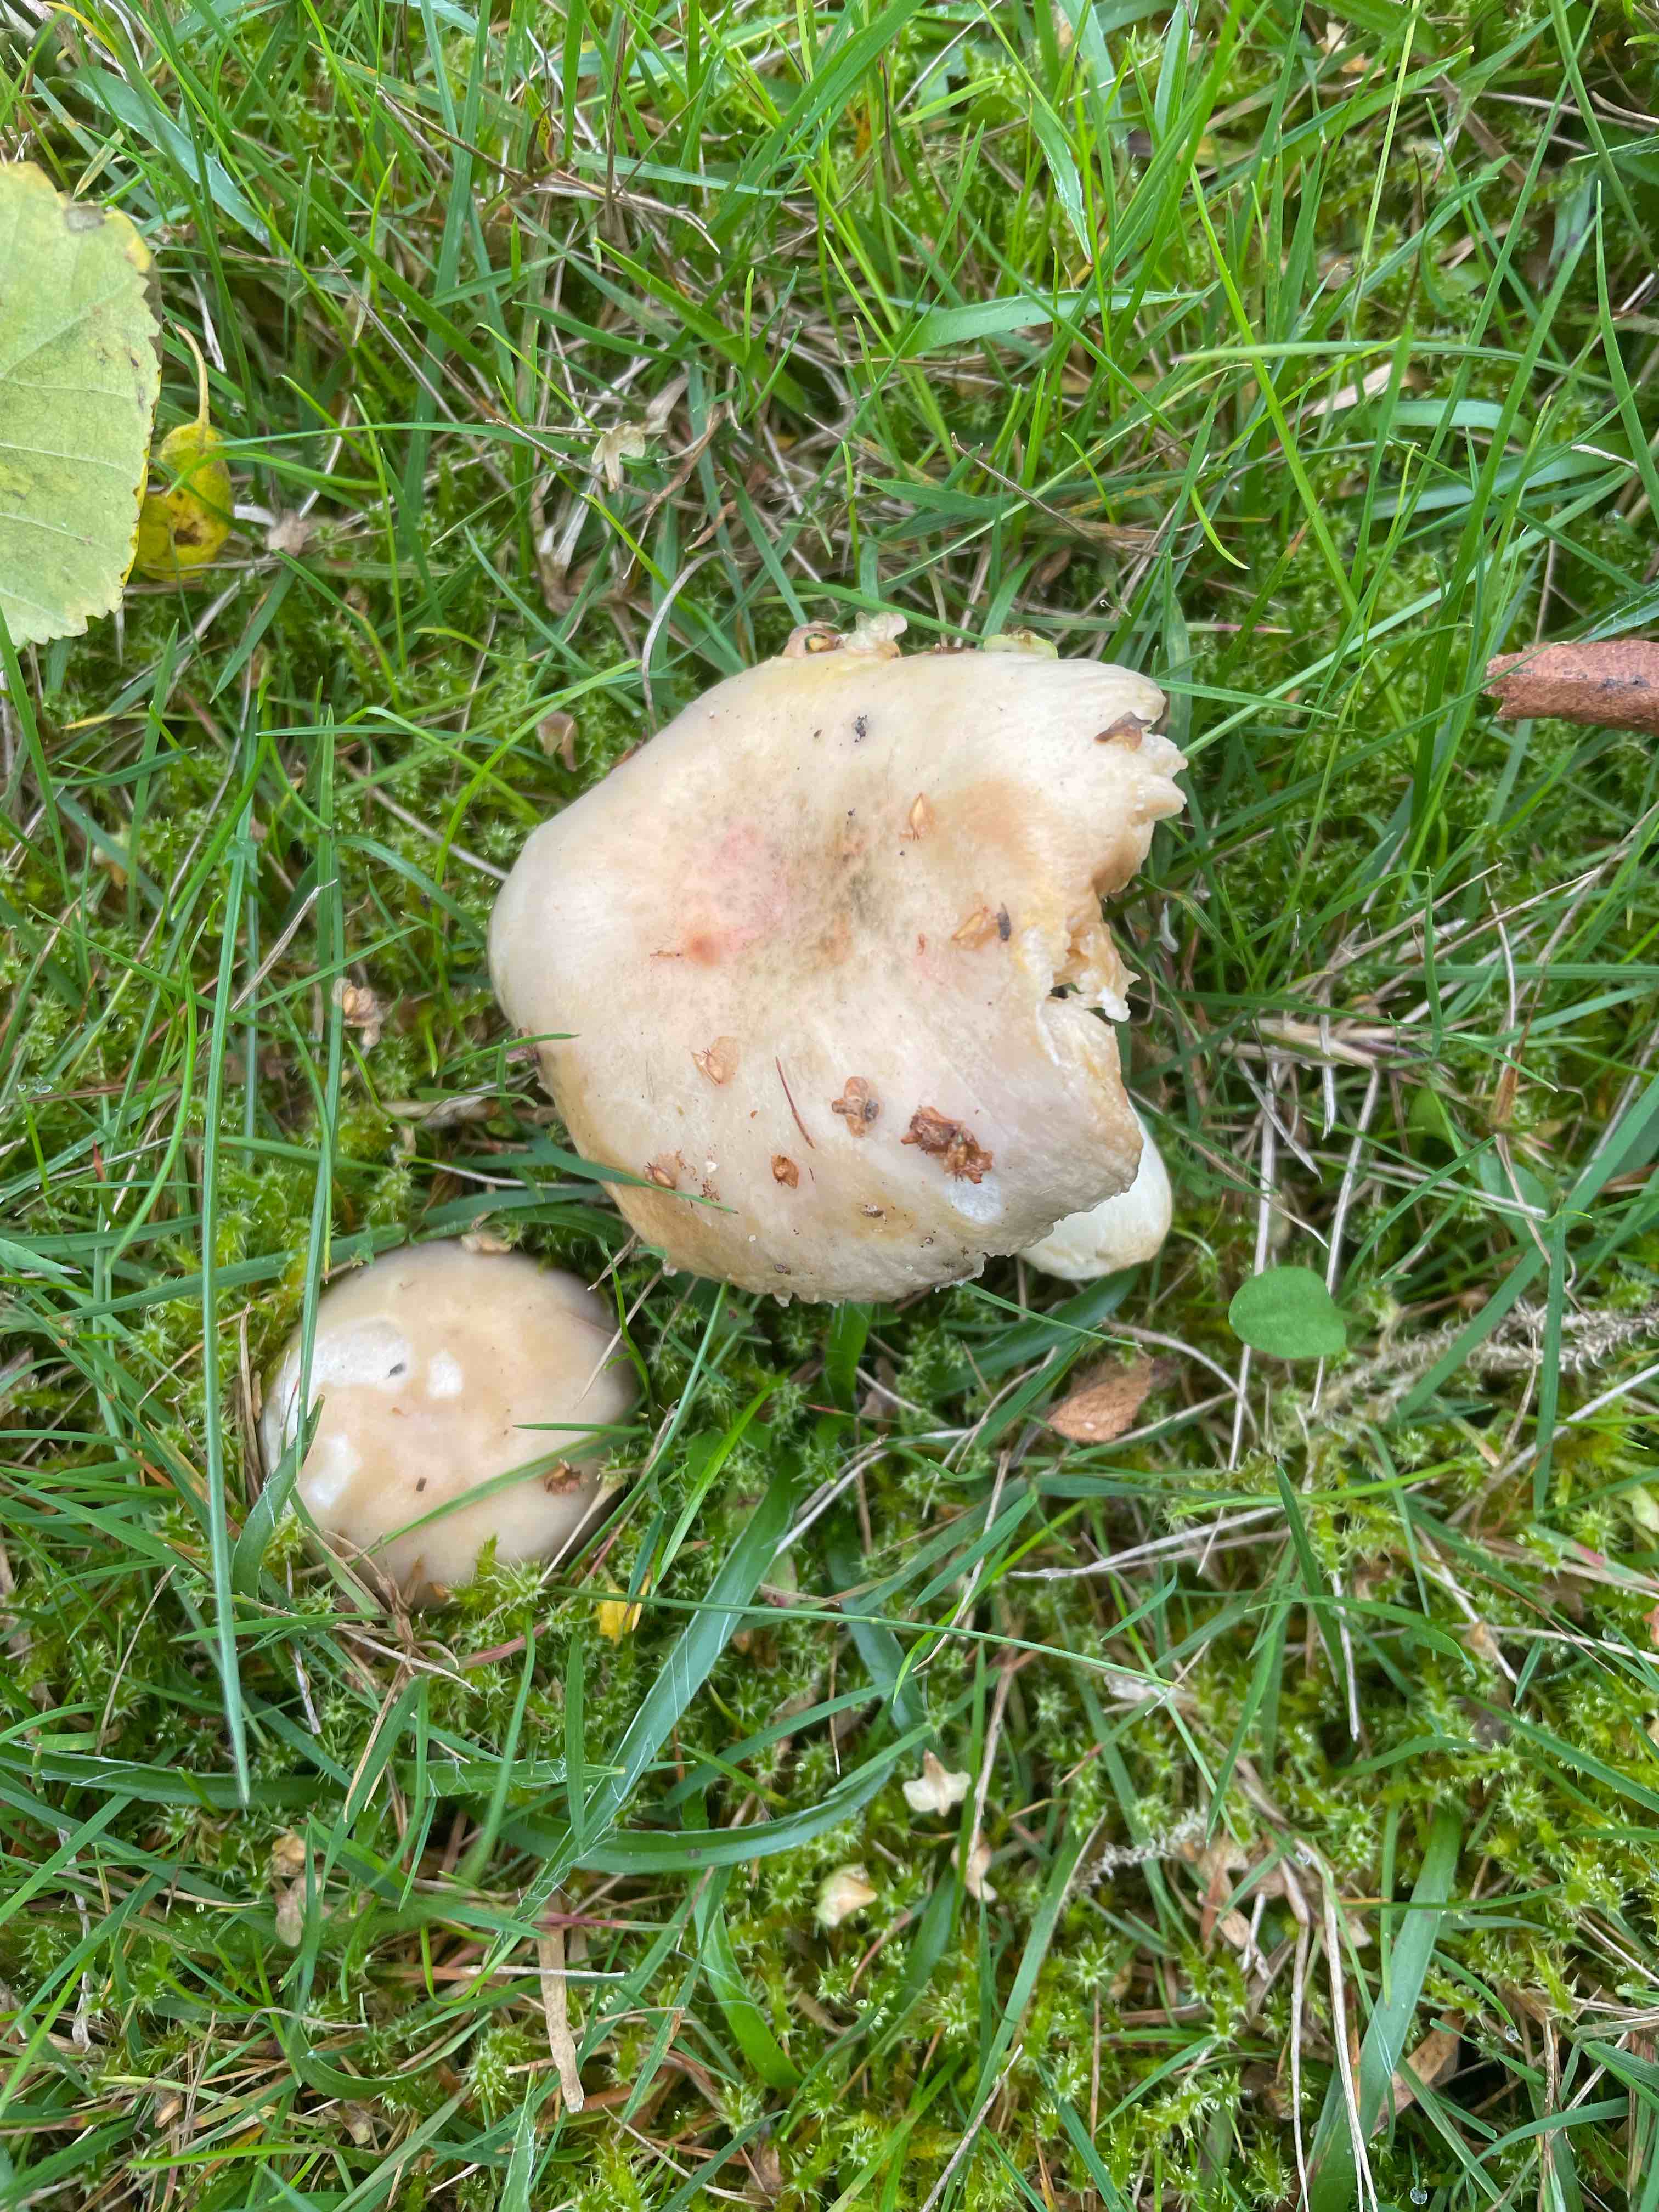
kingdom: Fungi
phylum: Basidiomycota
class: Agaricomycetes
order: Russulales
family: Russulaceae
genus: Russula
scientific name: Russula
